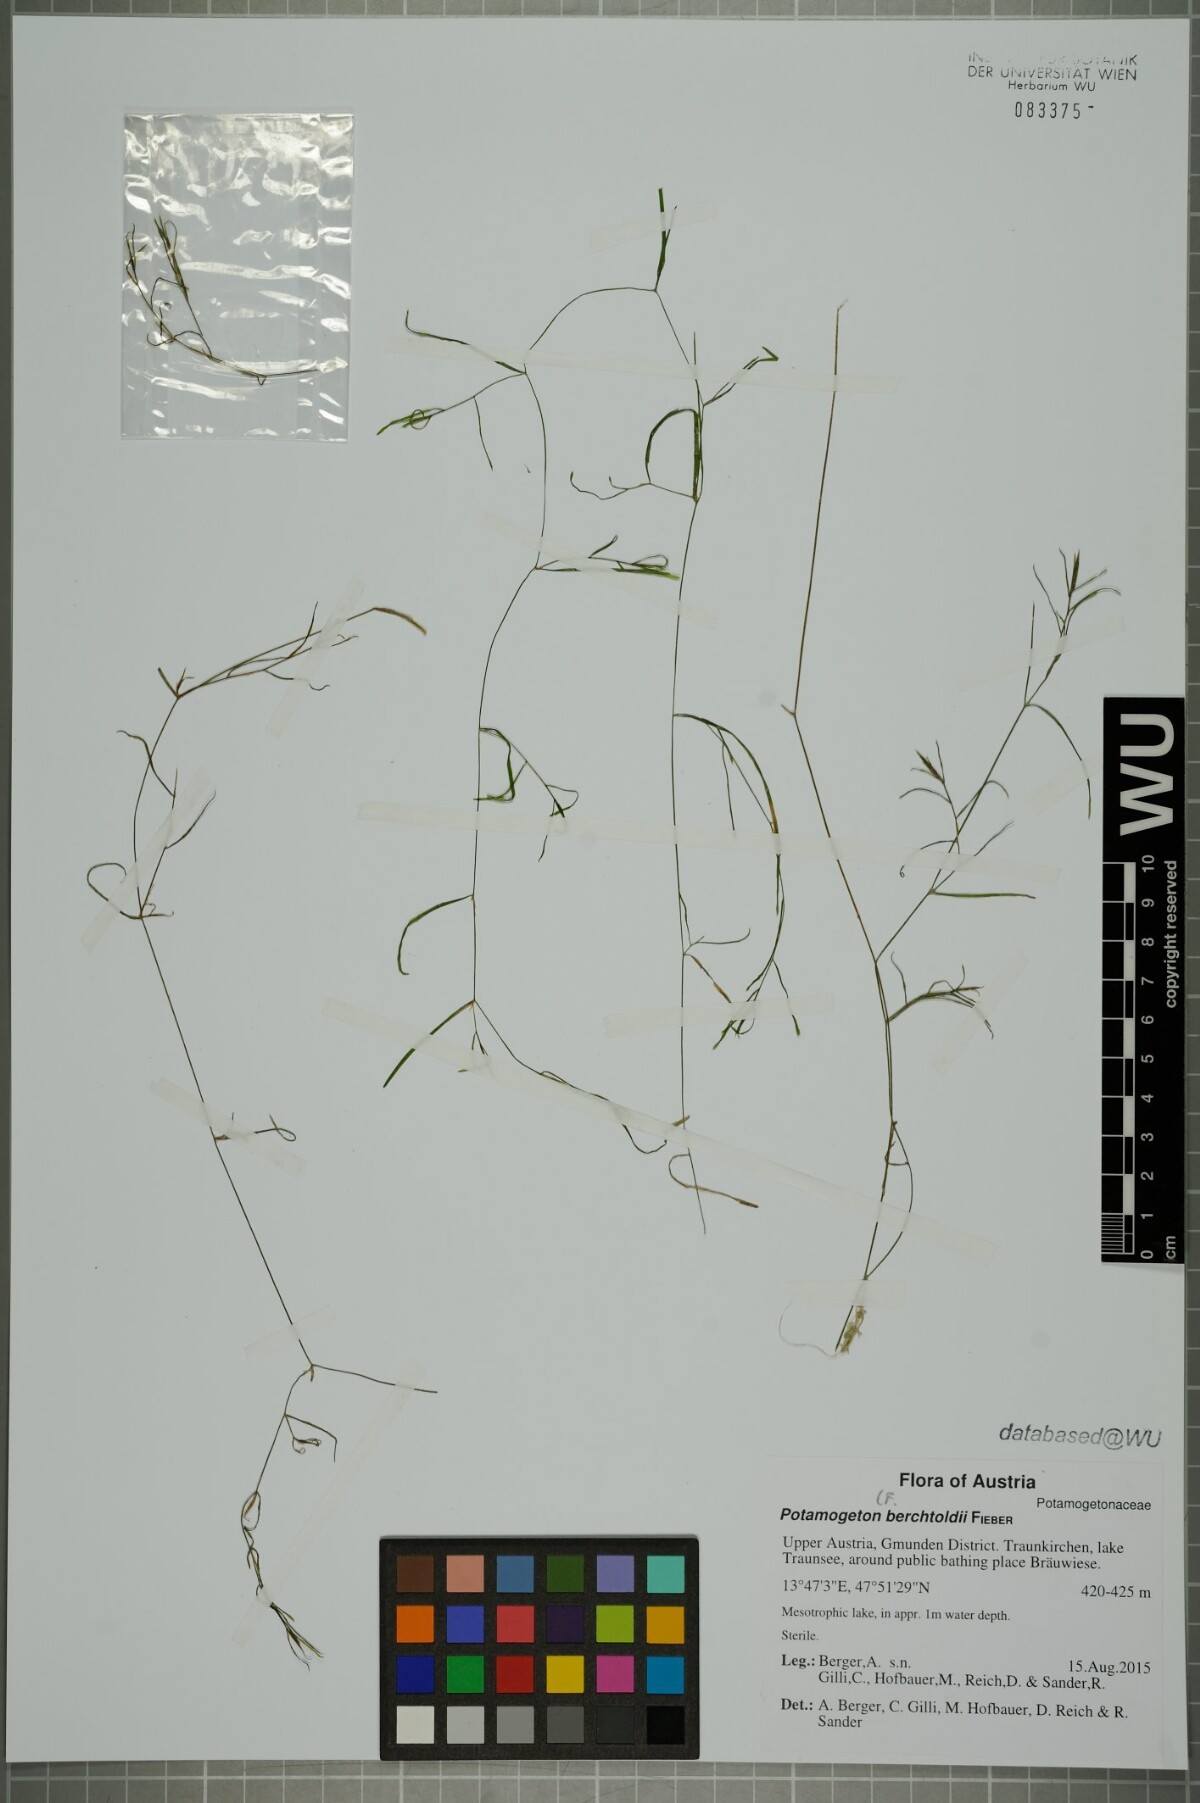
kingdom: Plantae
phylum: Tracheophyta
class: Liliopsida
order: Alismatales
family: Potamogetonaceae
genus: Potamogeton
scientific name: Potamogeton berchtoldii
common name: Small pondweed
